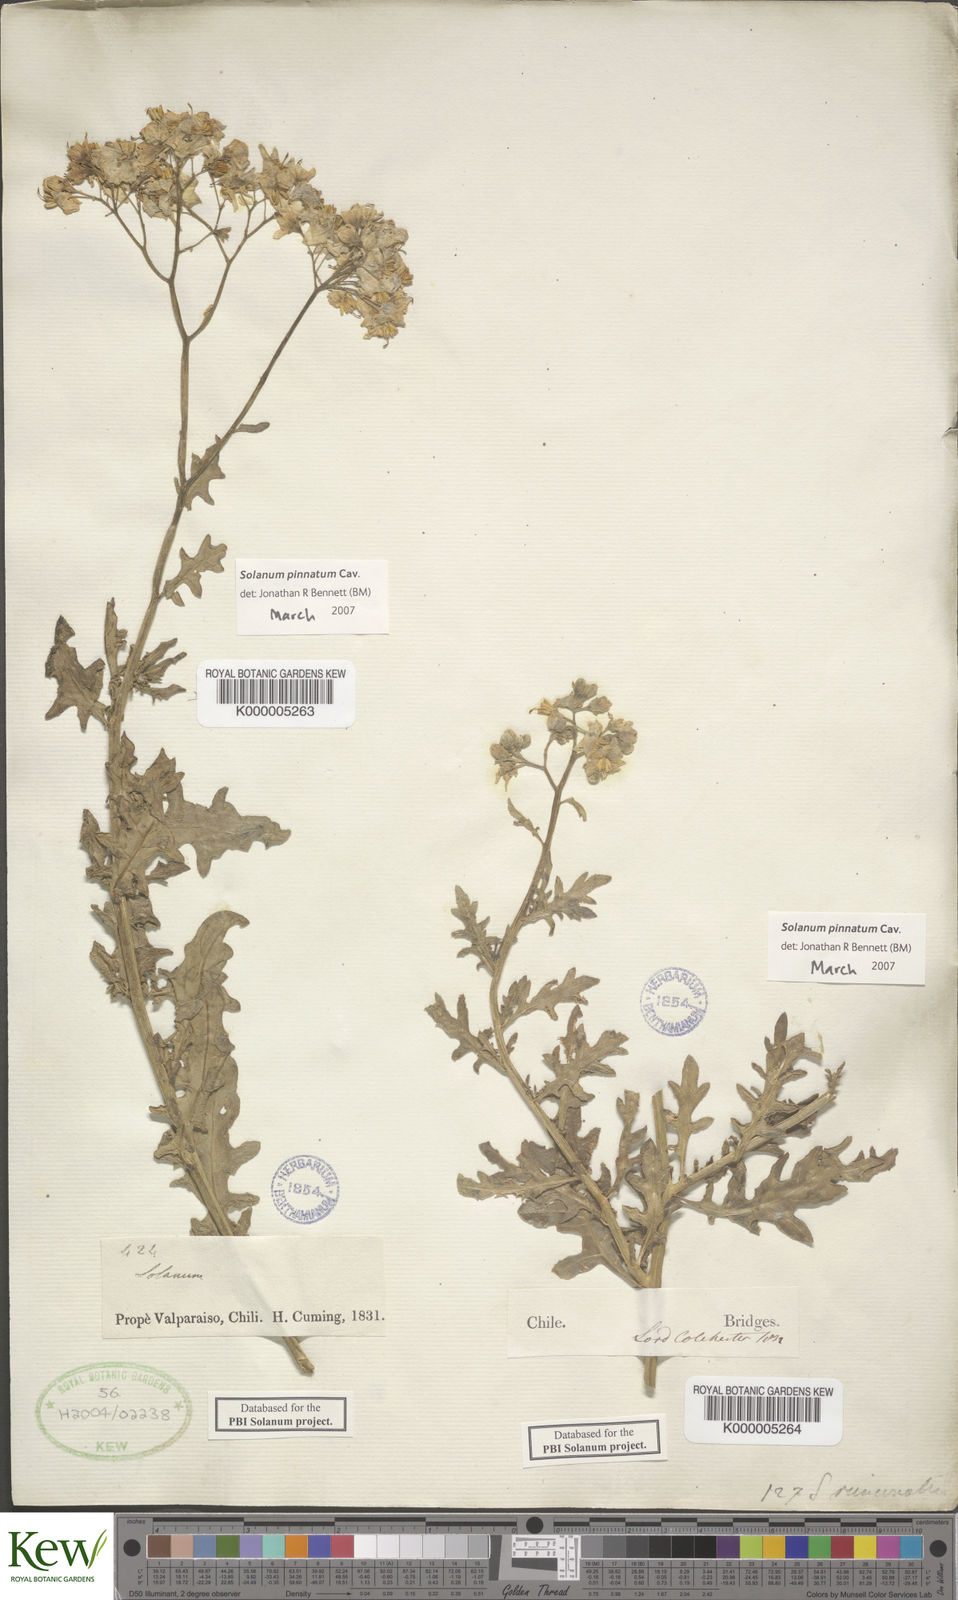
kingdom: Plantae
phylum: Tracheophyta
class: Magnoliopsida
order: Solanales
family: Solanaceae
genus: Solanum
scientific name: Solanum pinnatum
